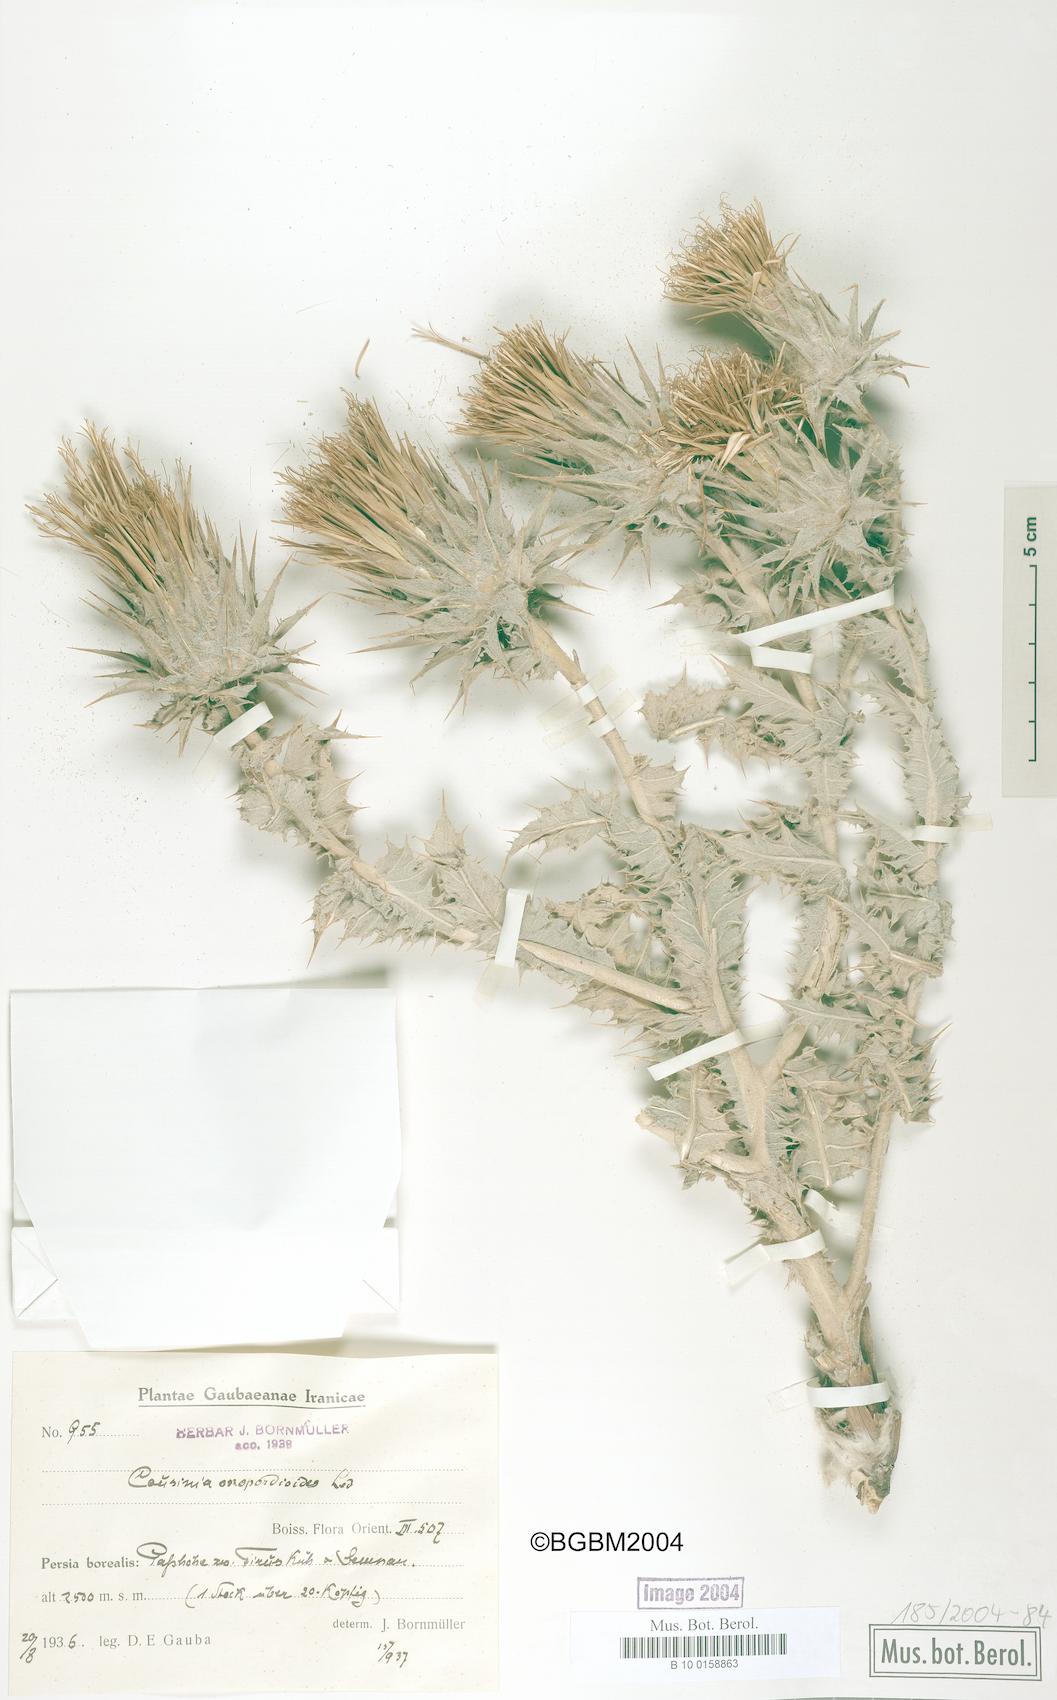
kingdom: Plantae
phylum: Tracheophyta
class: Magnoliopsida
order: Asterales
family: Asteraceae
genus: Cousinia
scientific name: Cousinia onopordioides
